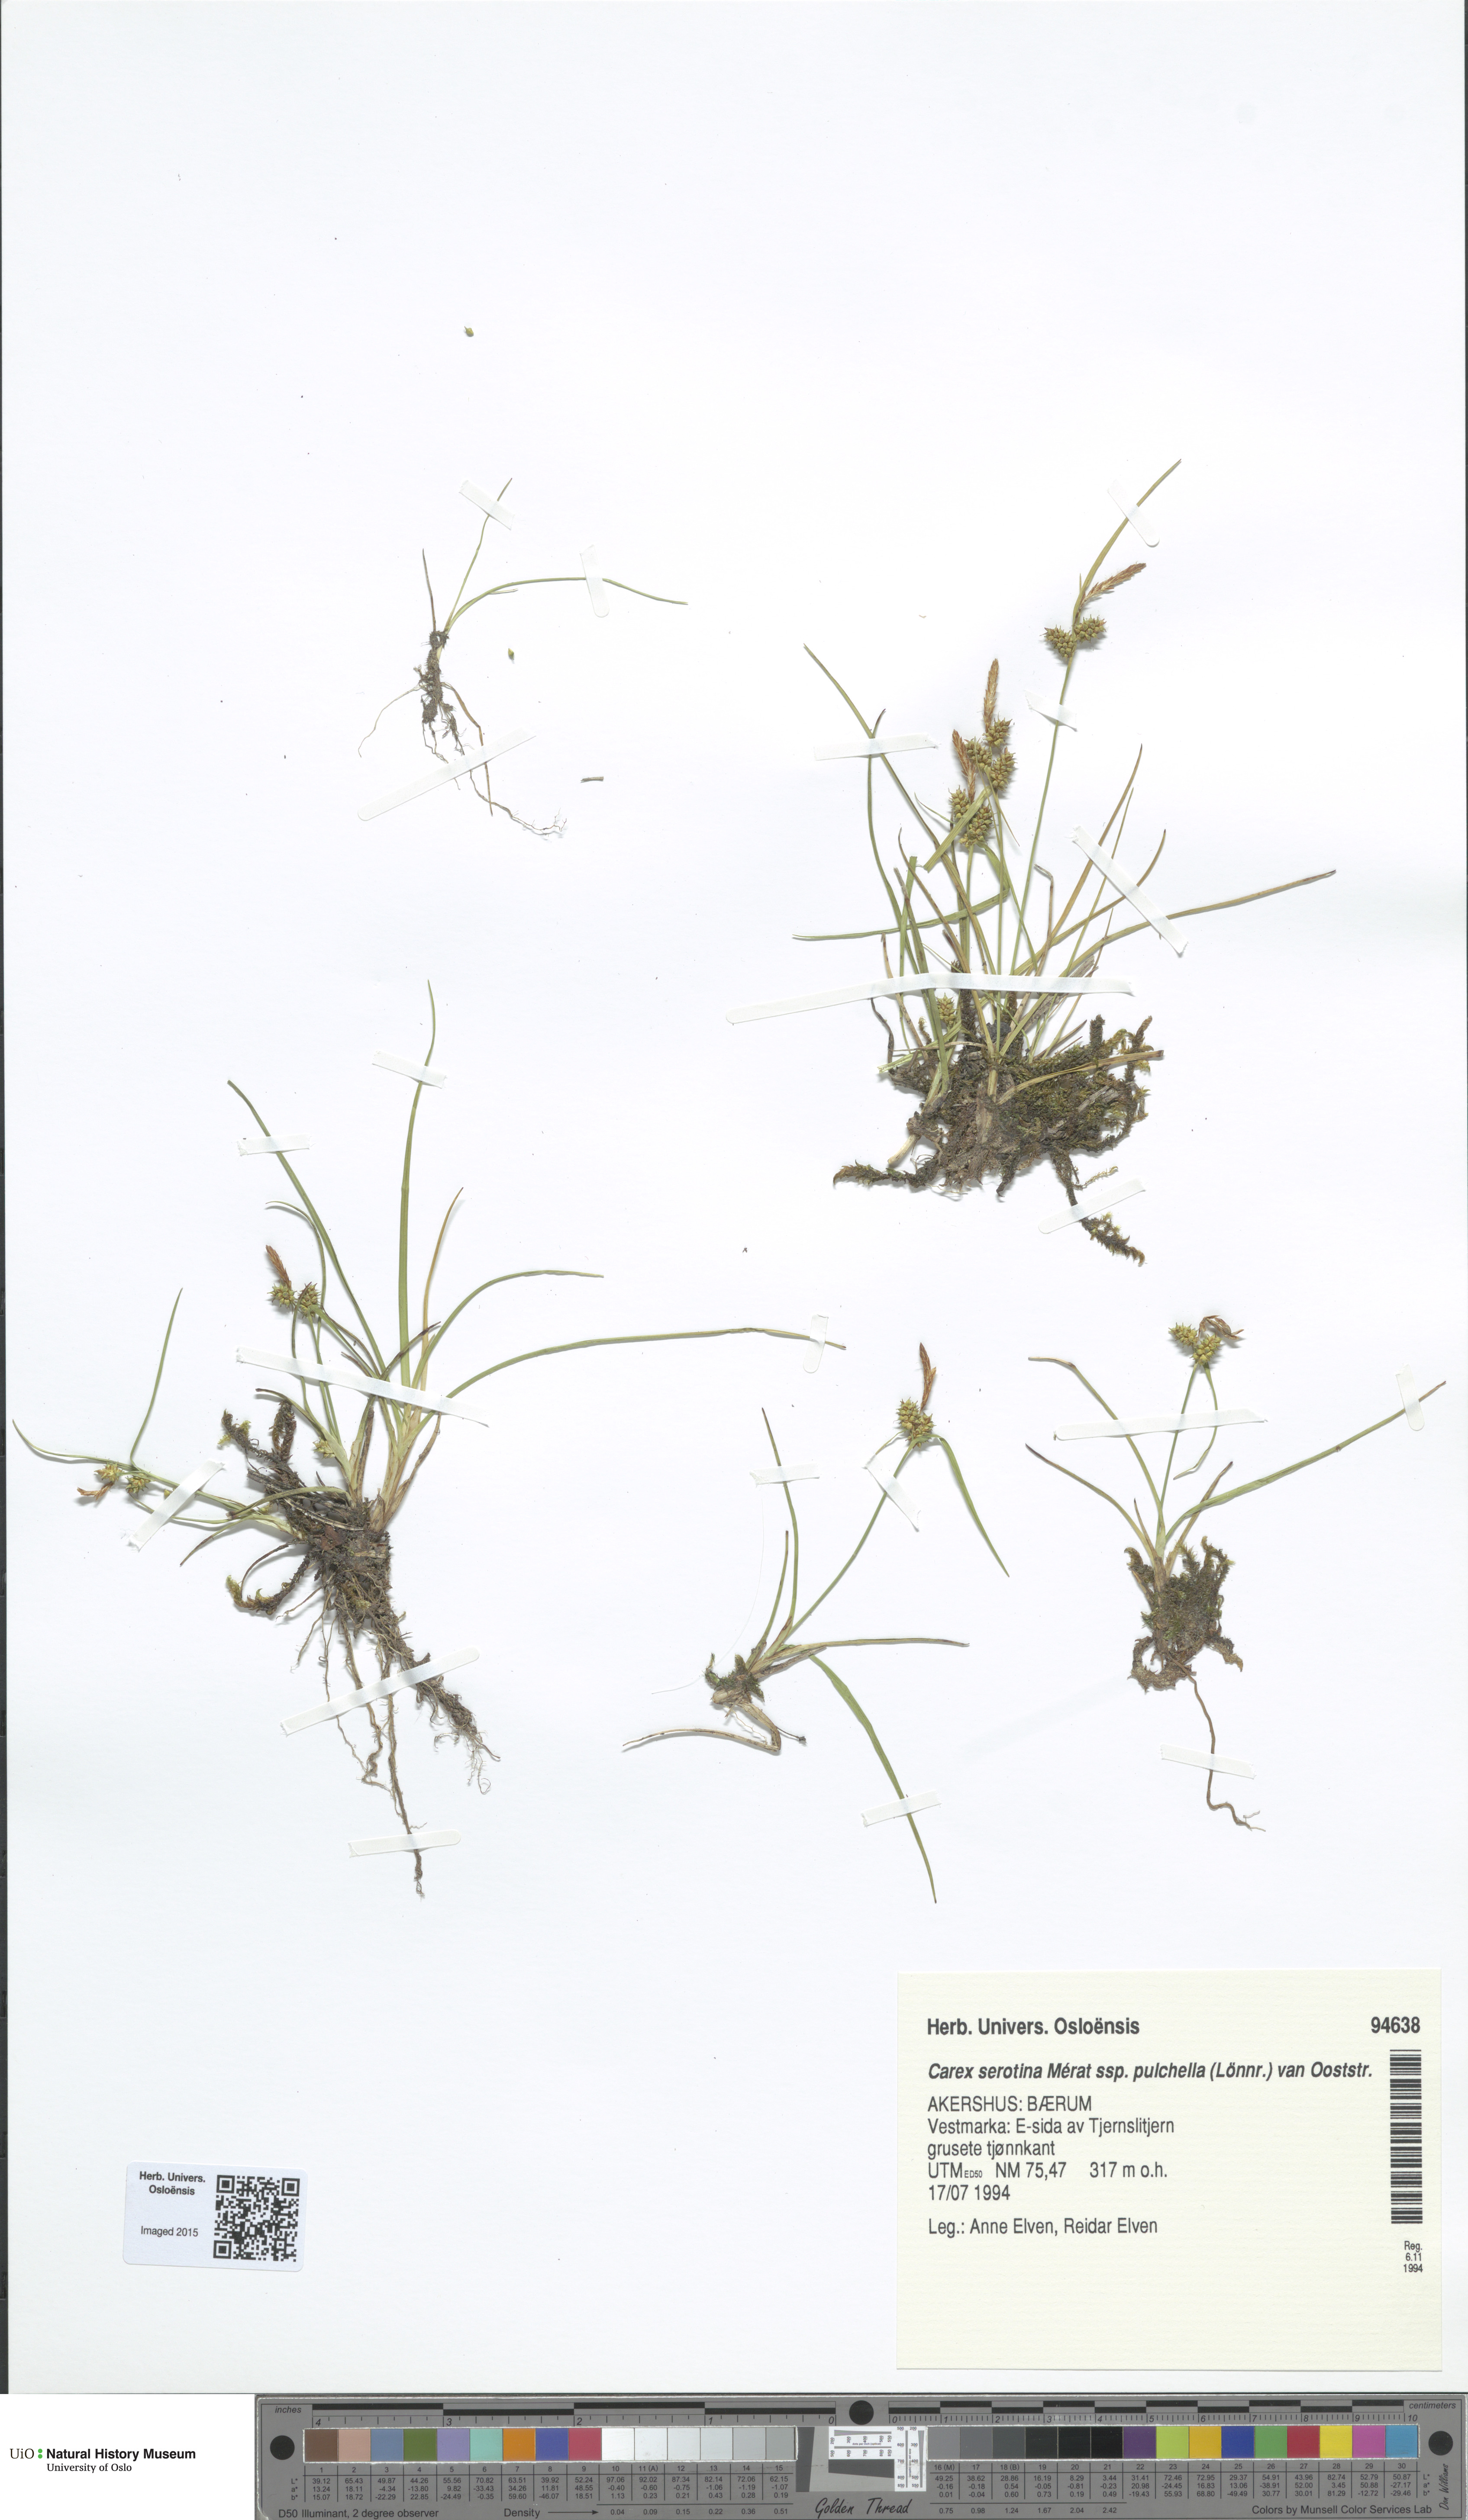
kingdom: Plantae
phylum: Tracheophyta
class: Liliopsida
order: Poales
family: Cyperaceae
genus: Carex
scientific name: Carex oederi
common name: Common & small-fruited yellow-sedge
